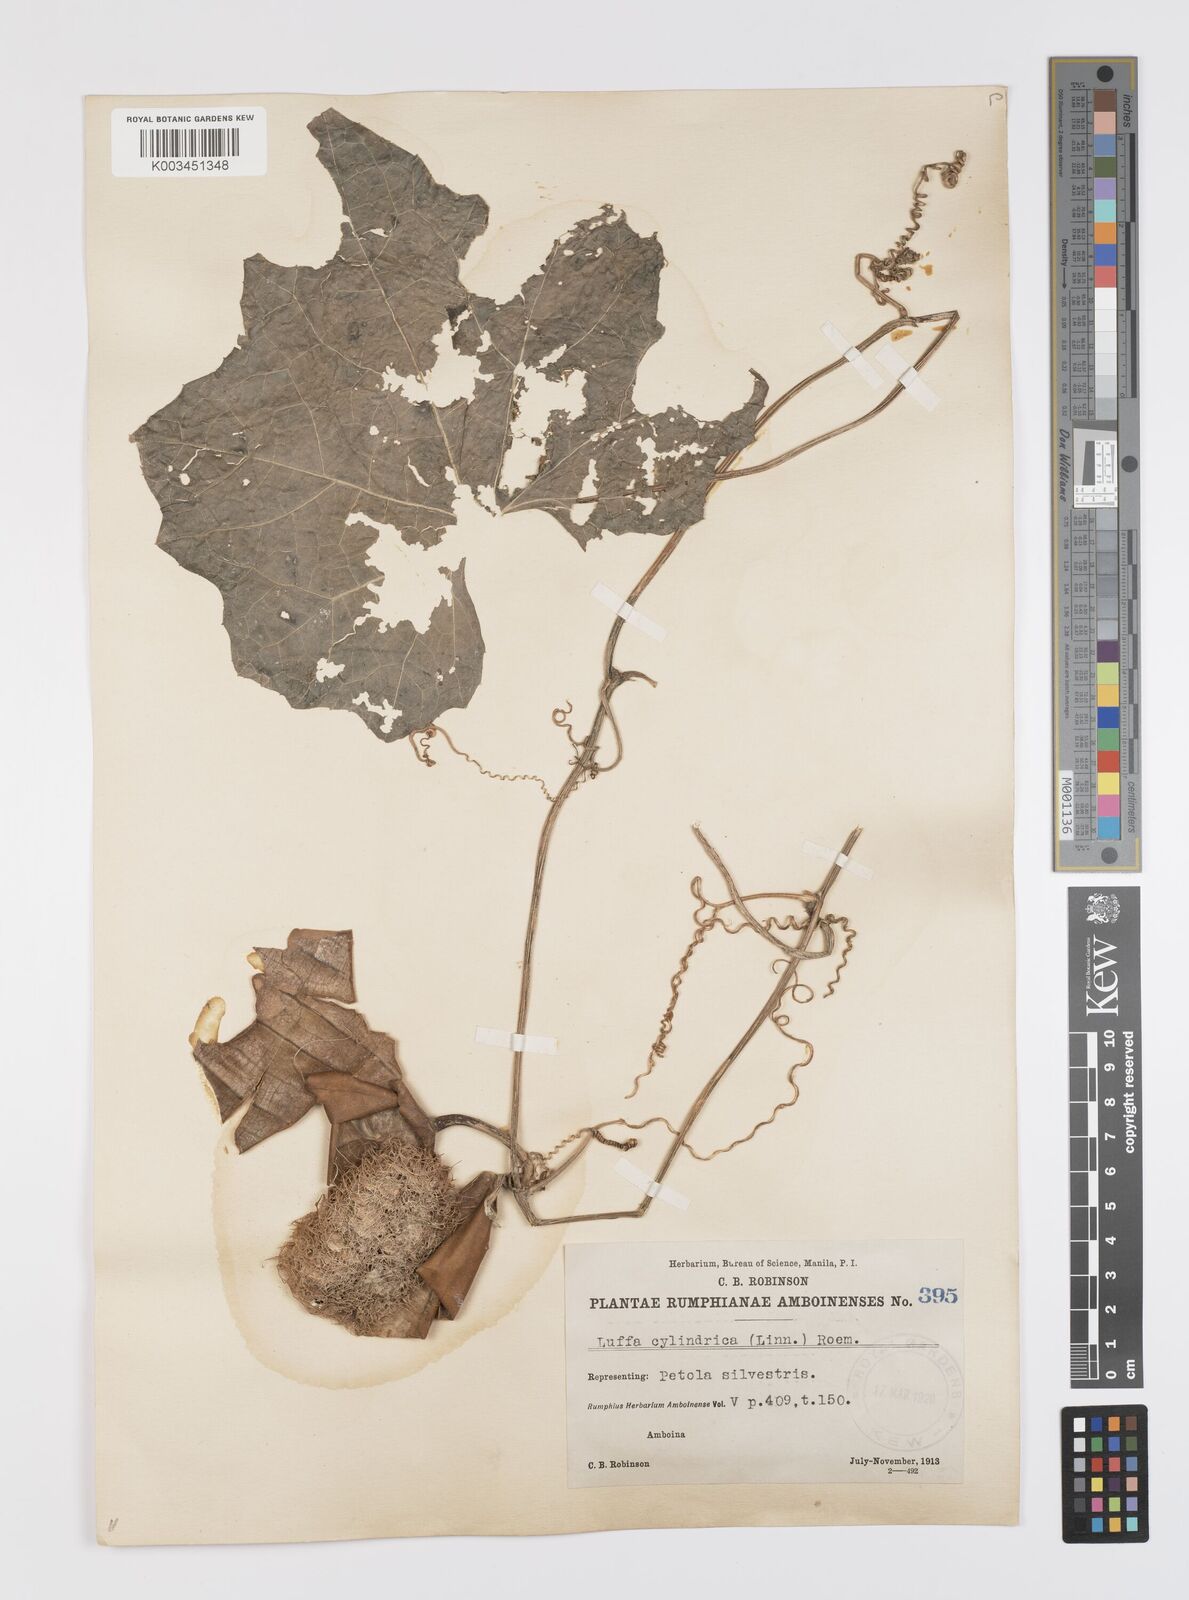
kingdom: Plantae
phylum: Tracheophyta
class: Magnoliopsida
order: Cucurbitales
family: Cucurbitaceae
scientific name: Cucurbitaceae
